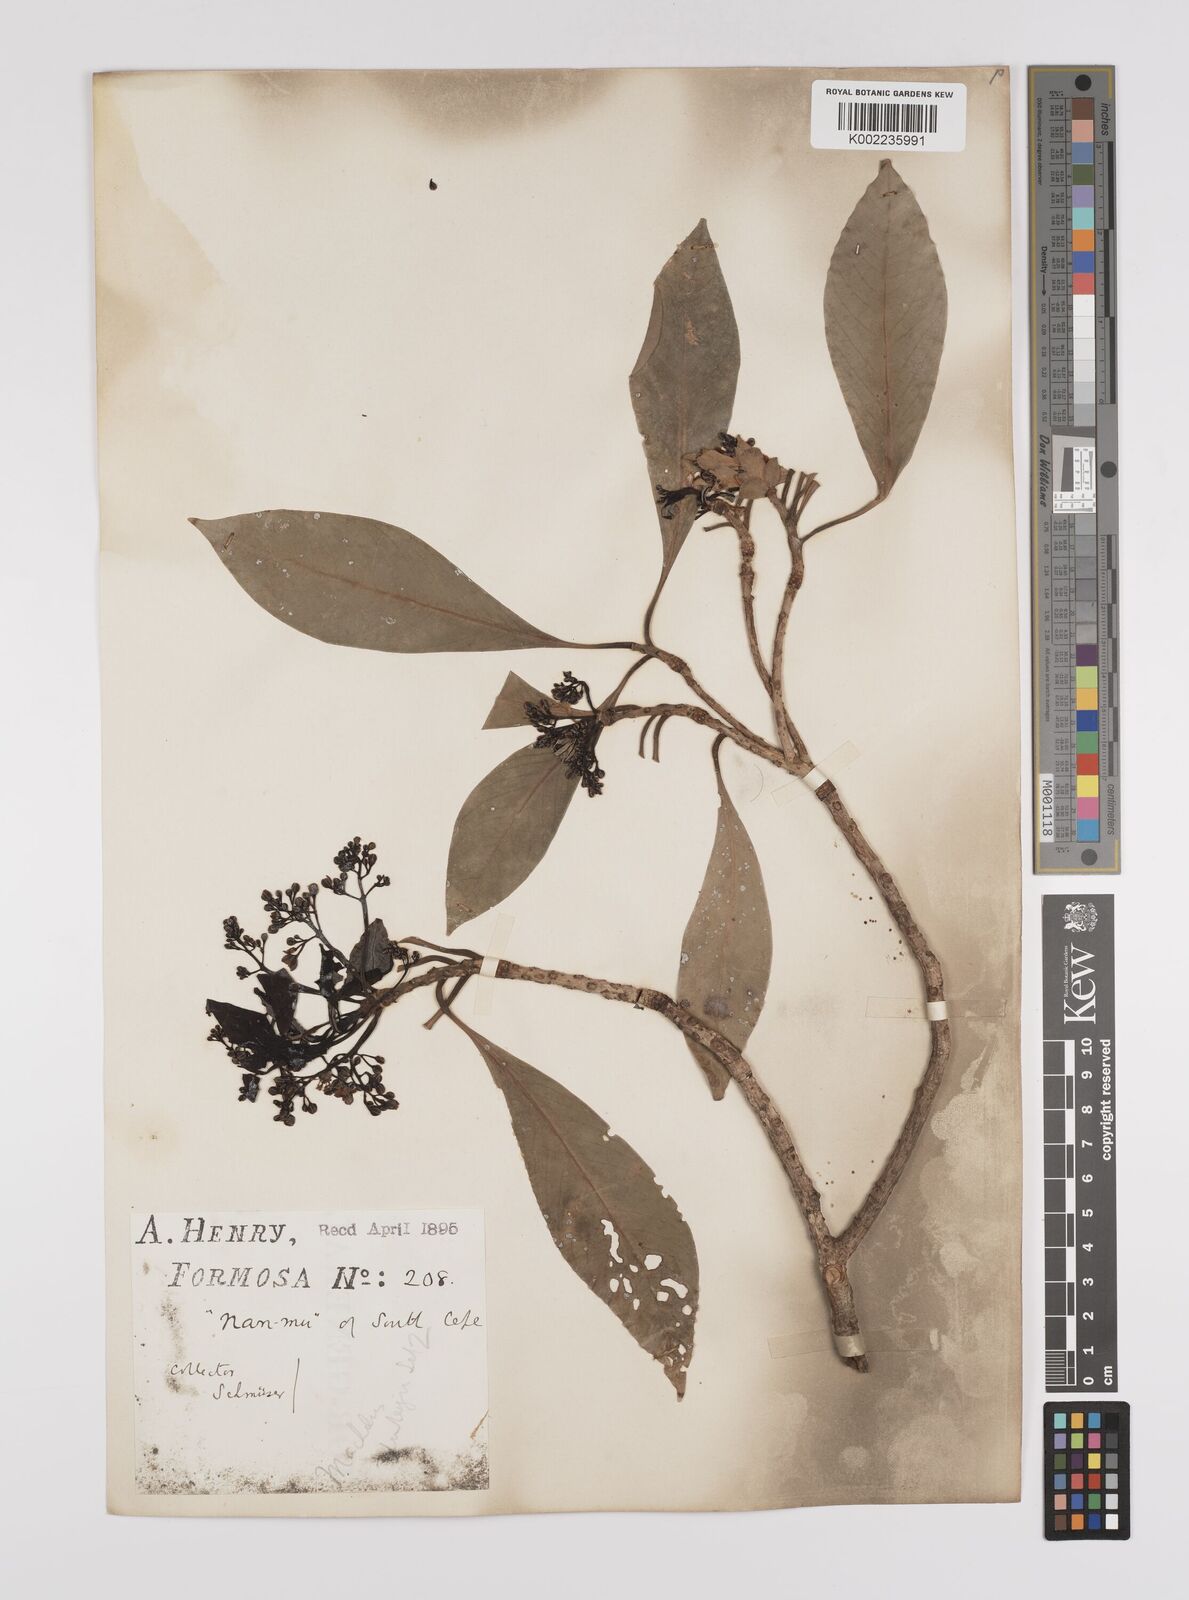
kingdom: Plantae
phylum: Tracheophyta
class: Magnoliopsida
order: Laurales
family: Lauraceae
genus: Persea
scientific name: Persea
